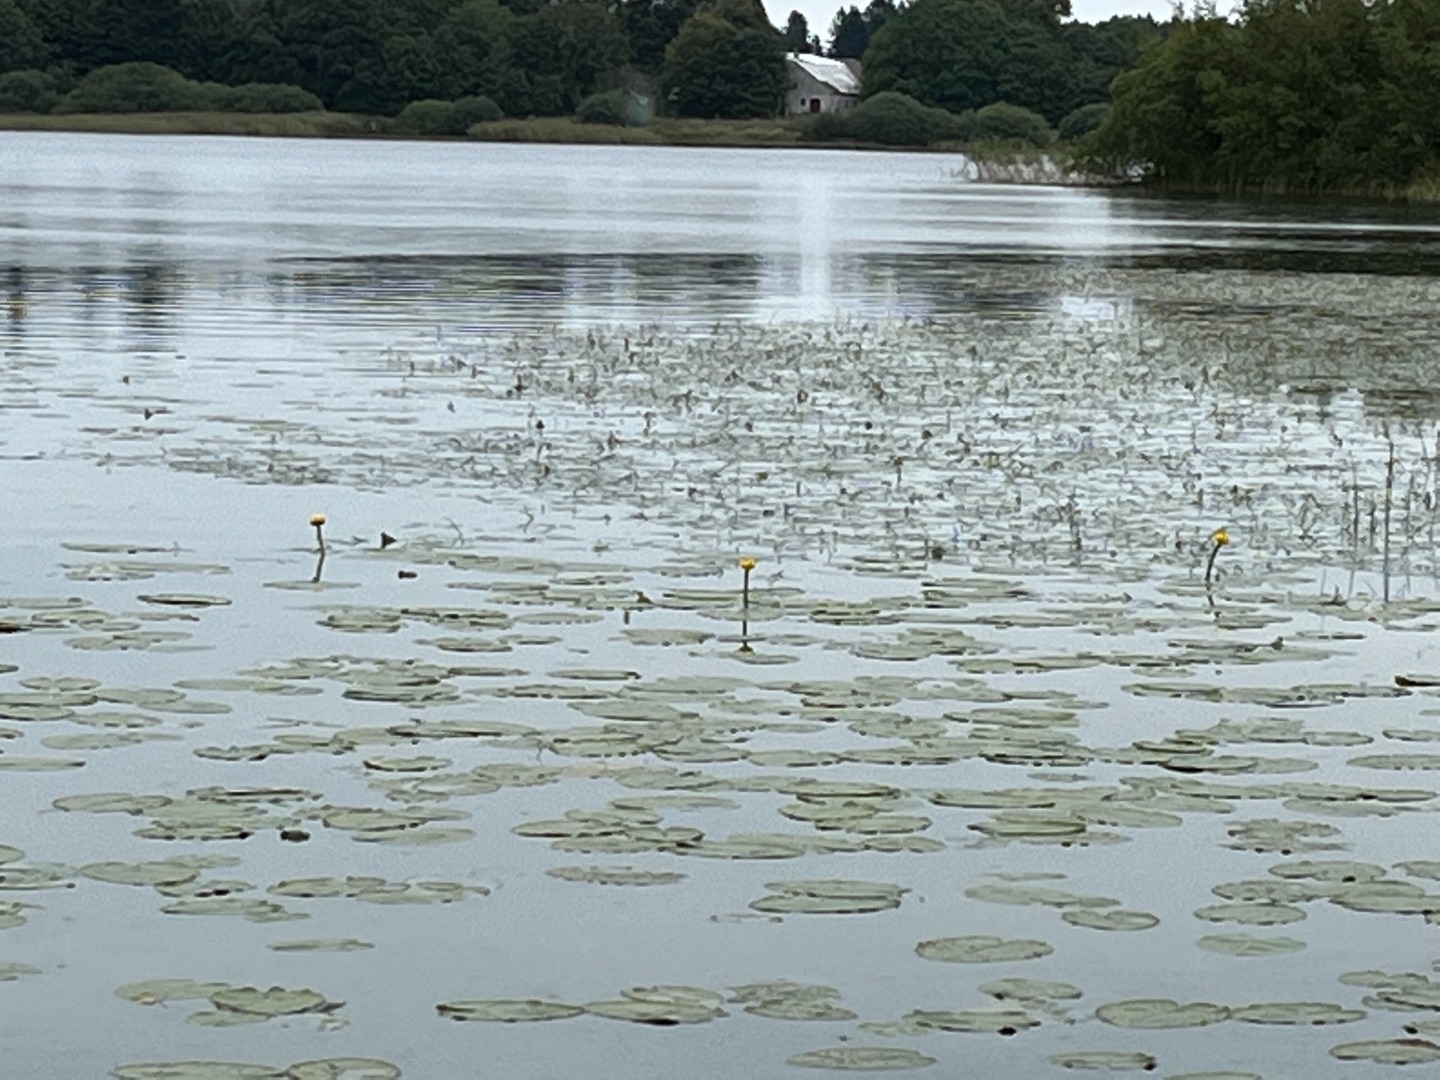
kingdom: Plantae
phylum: Tracheophyta
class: Magnoliopsida
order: Nymphaeales
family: Nymphaeaceae
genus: Nuphar
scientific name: Nuphar lutea
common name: Gul åkande
